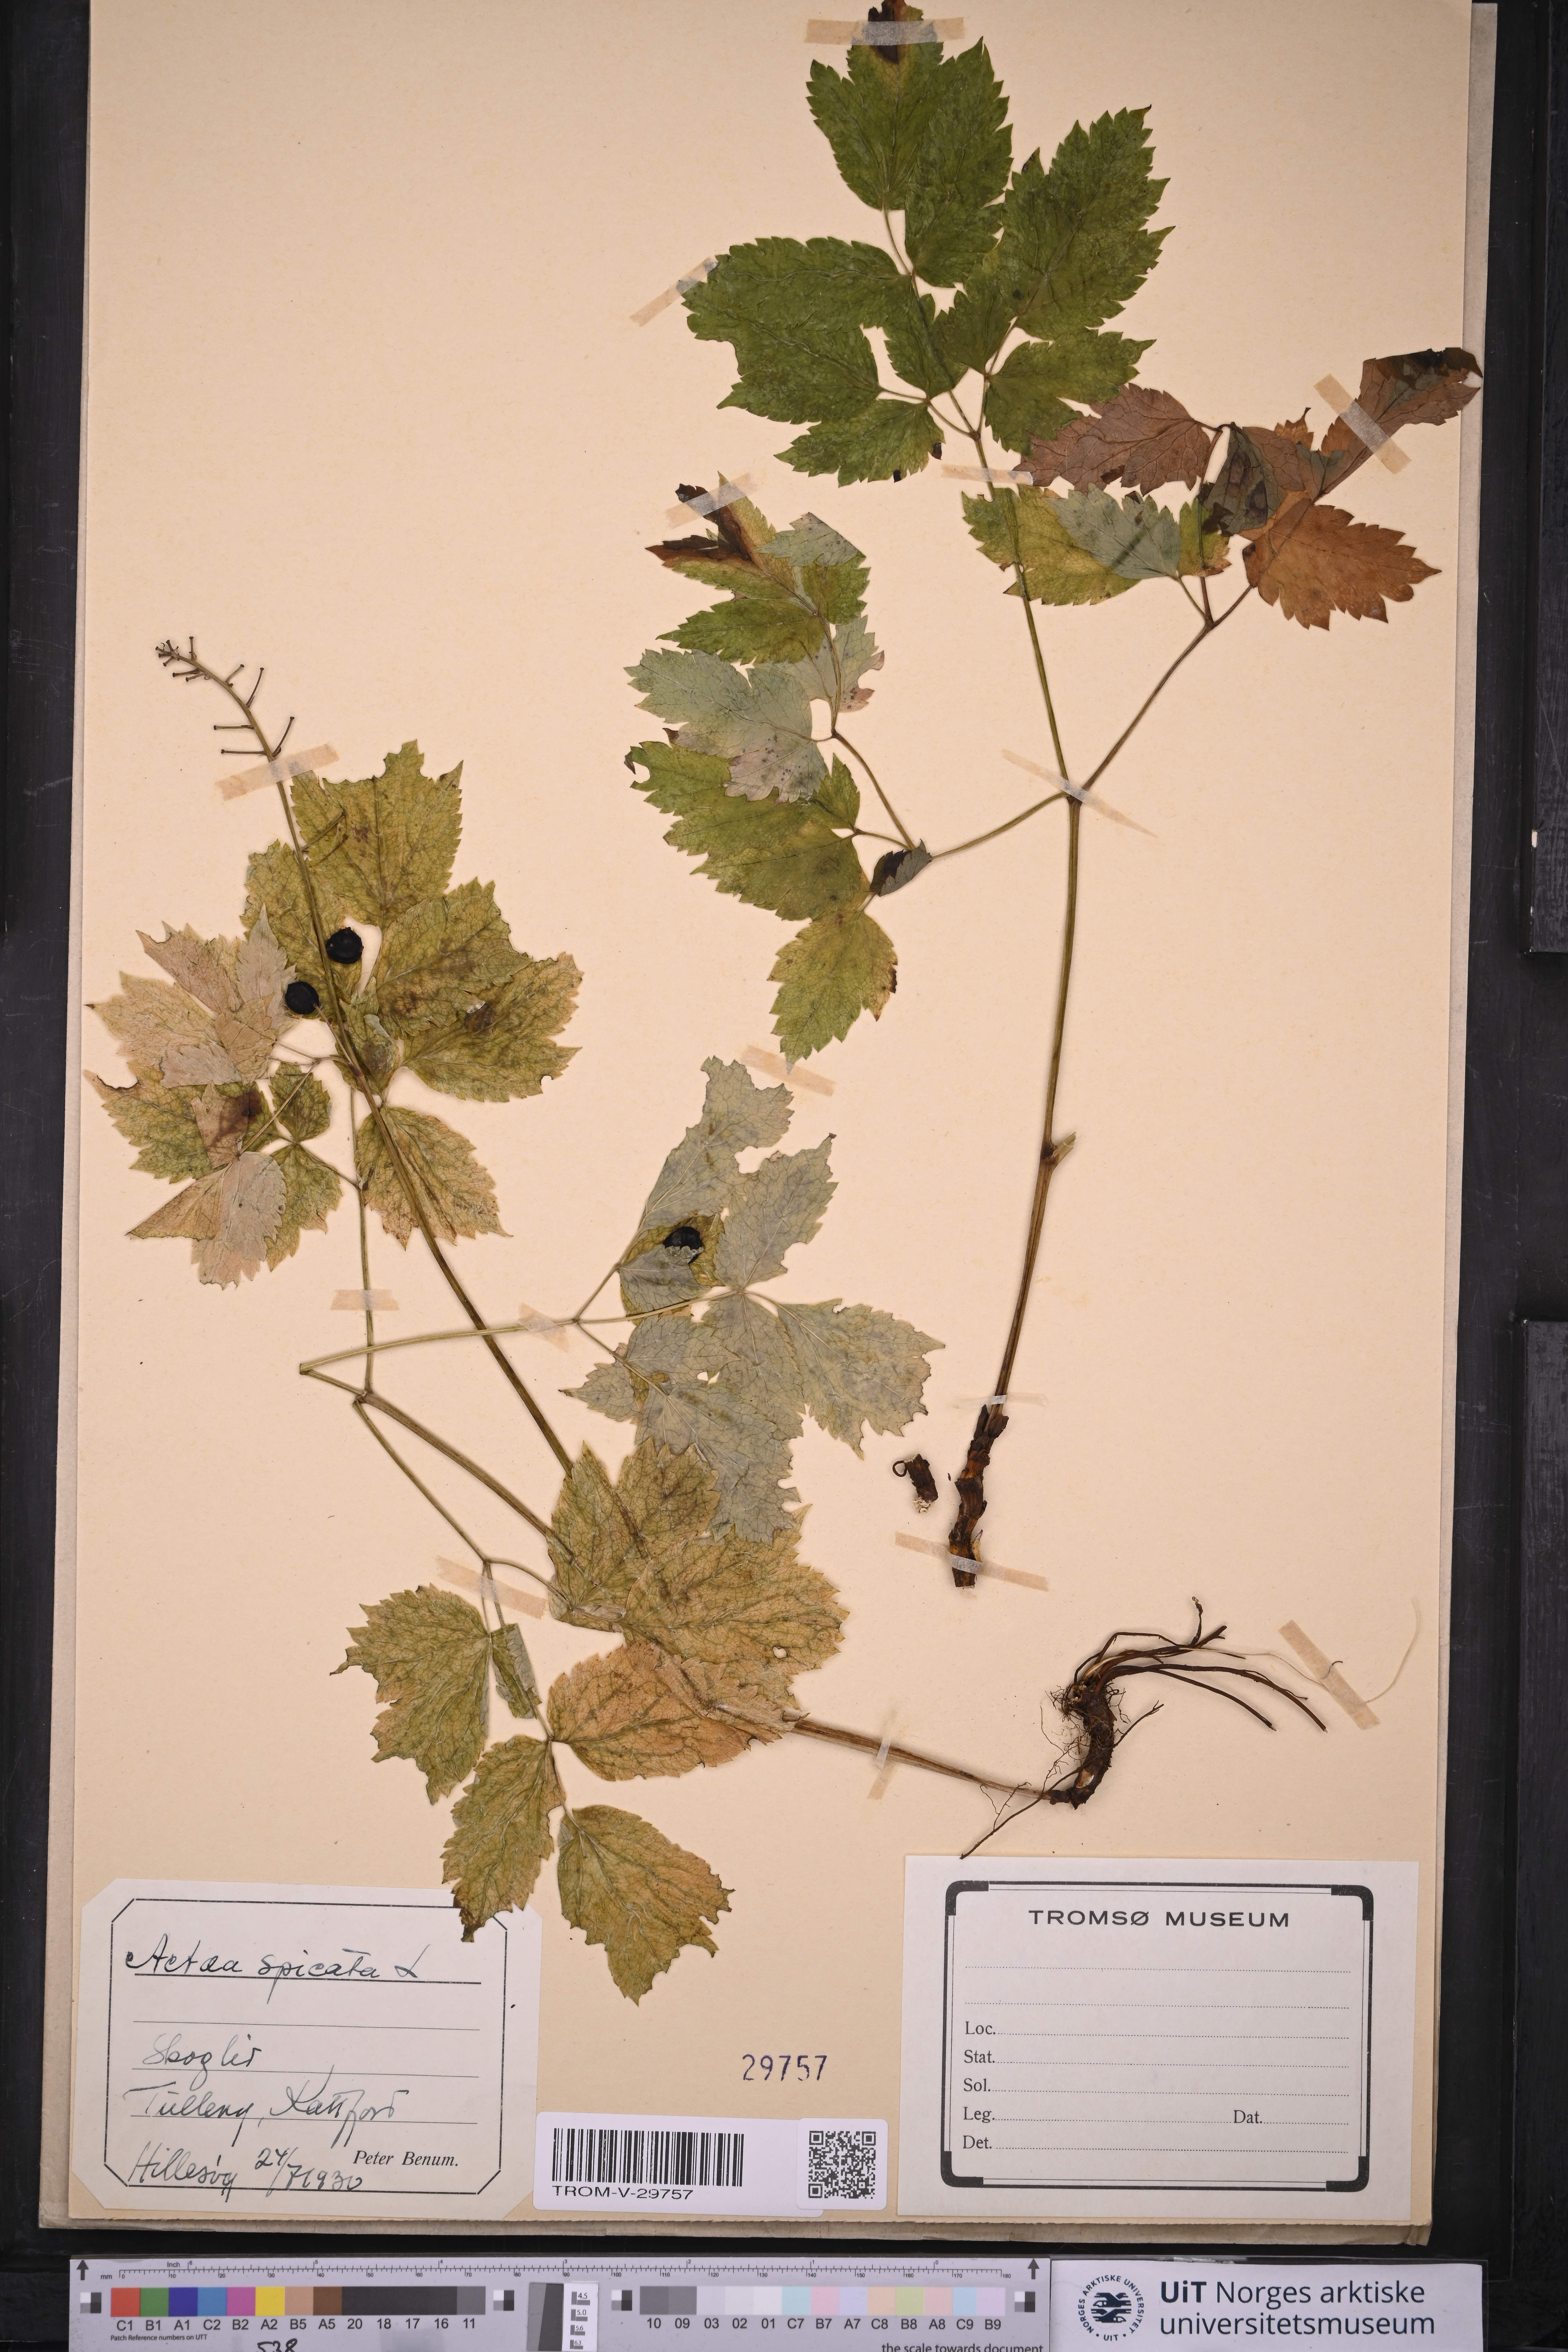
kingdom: Plantae
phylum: Tracheophyta
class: Magnoliopsida
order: Ranunculales
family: Ranunculaceae
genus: Actaea
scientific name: Actaea spicata
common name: Baneberry
